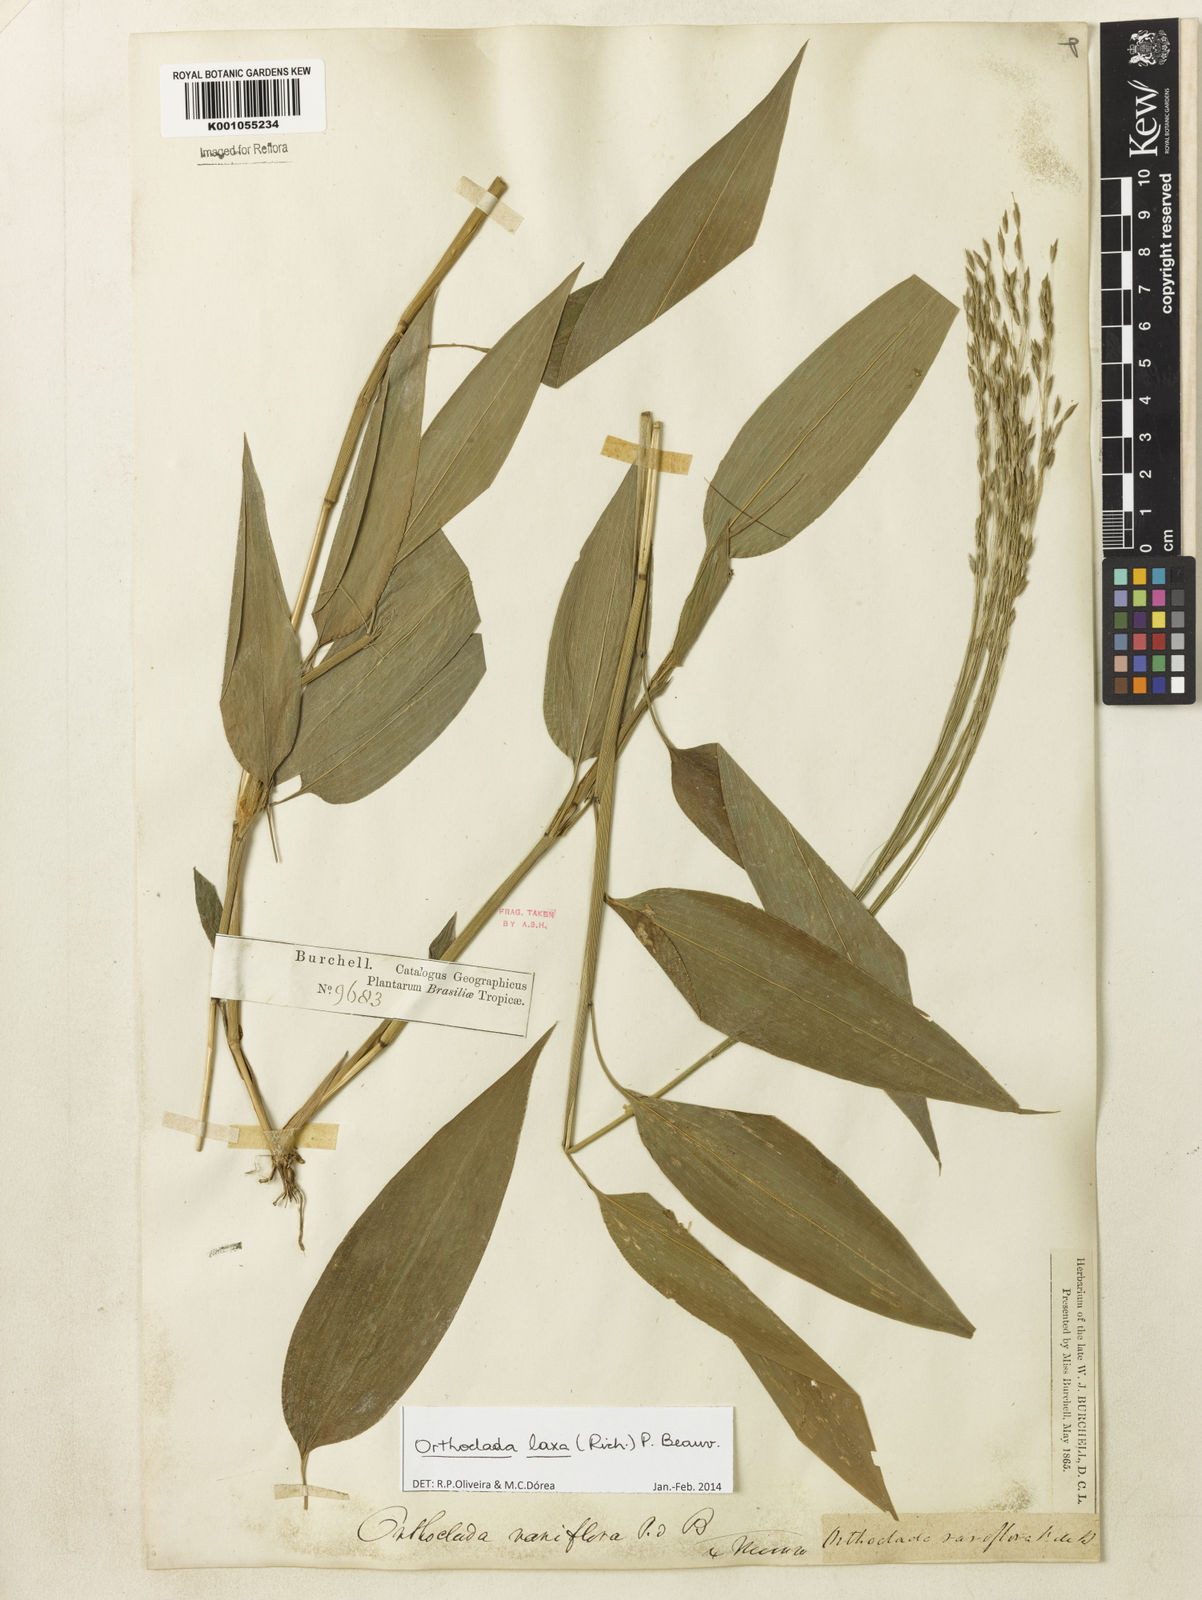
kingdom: Plantae
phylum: Tracheophyta
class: Liliopsida
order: Poales
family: Poaceae
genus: Orthoclada
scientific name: Orthoclada laxa
